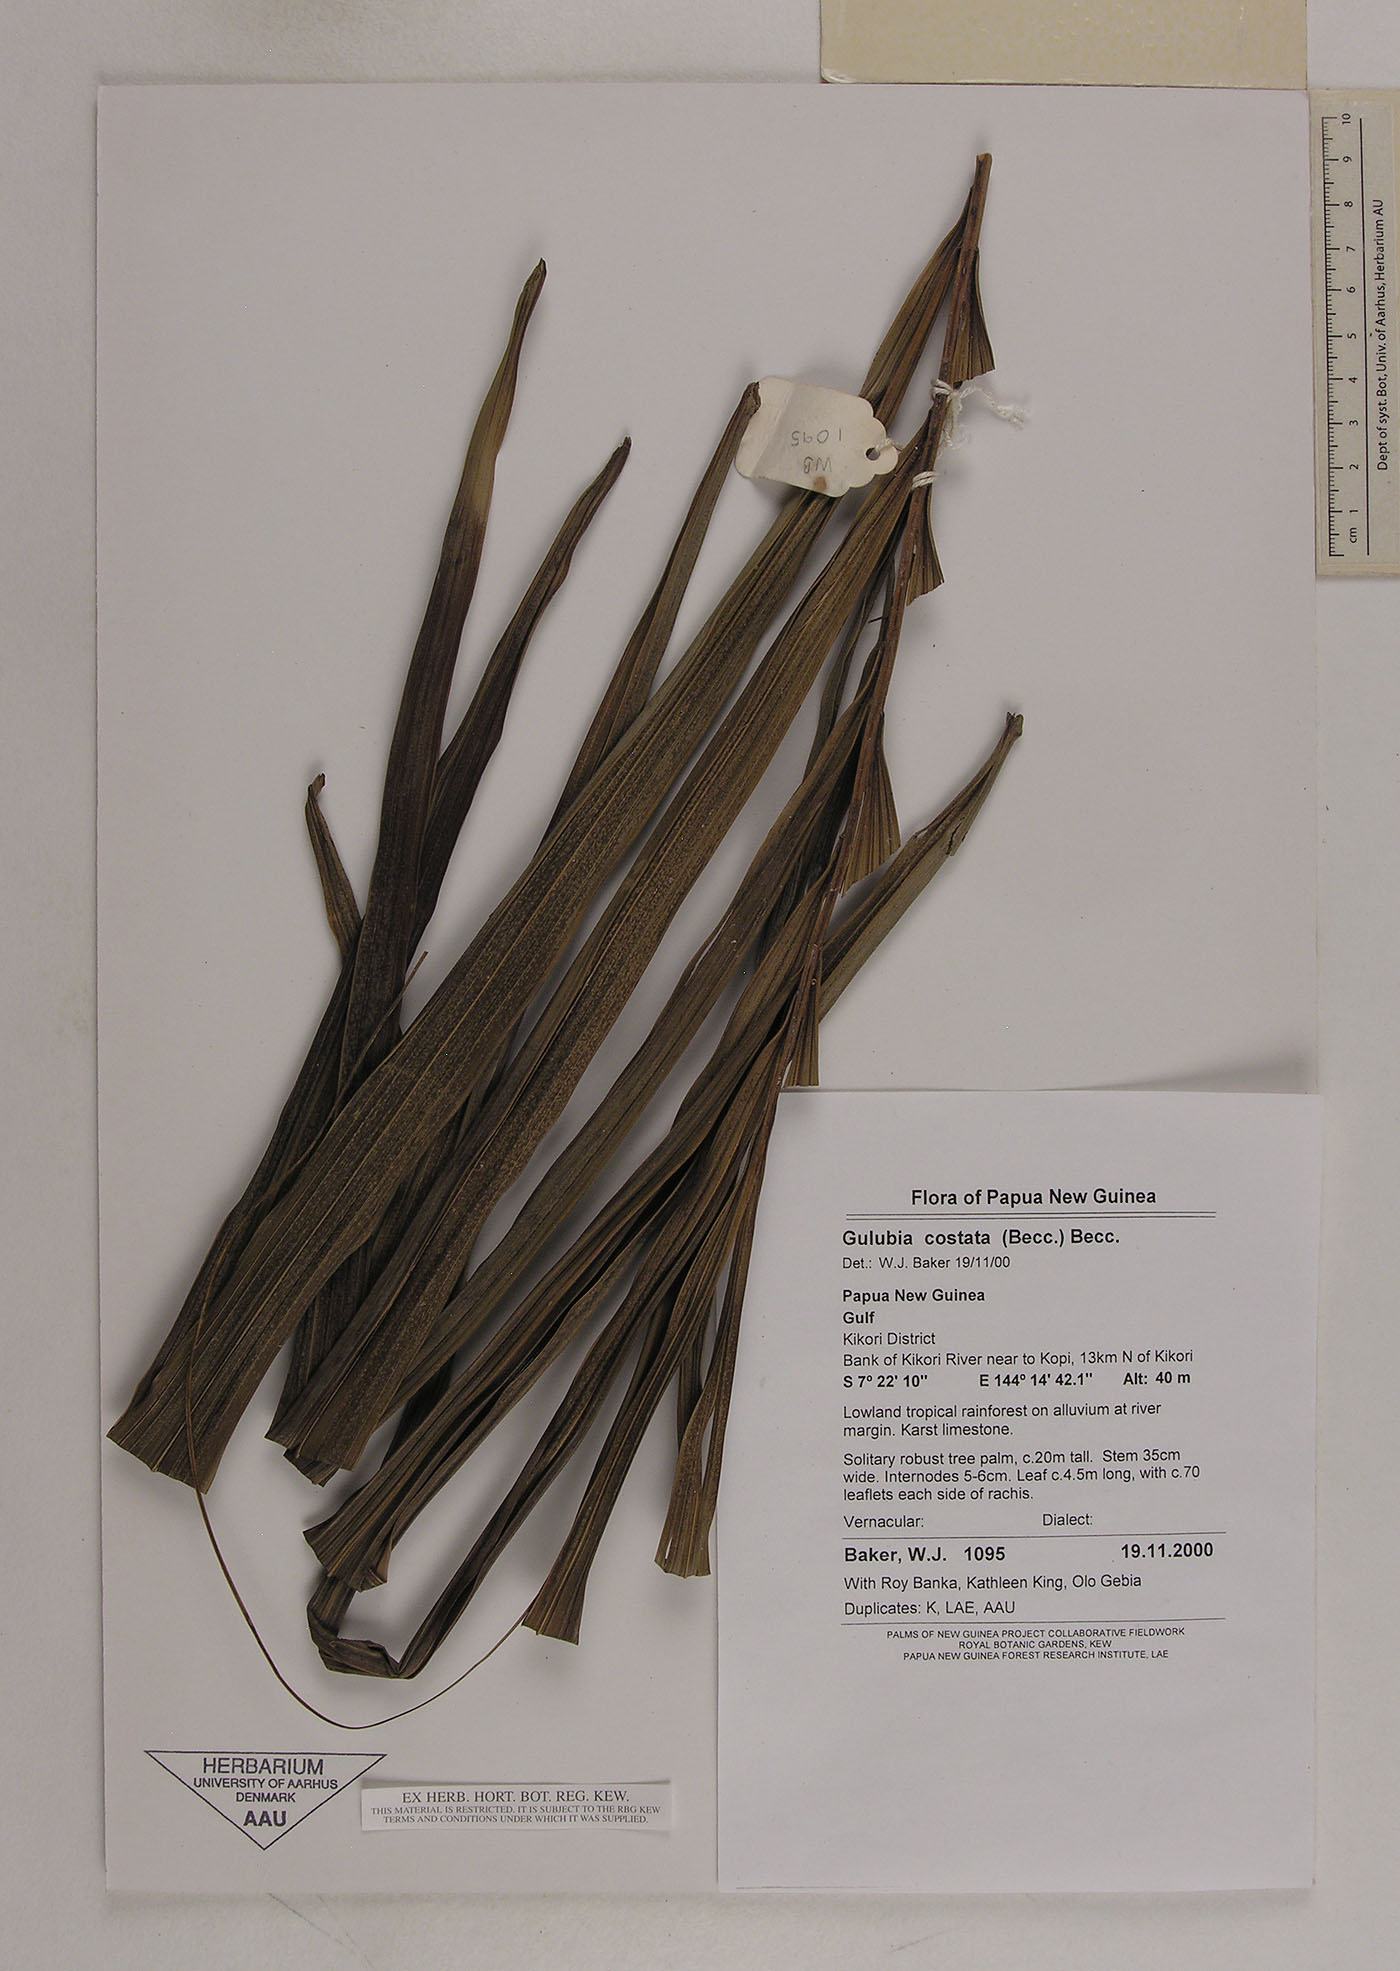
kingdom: Plantae
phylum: Tracheophyta
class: Liliopsida
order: Arecales
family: Arecaceae
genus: Hydriastele
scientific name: Hydriastele costata
